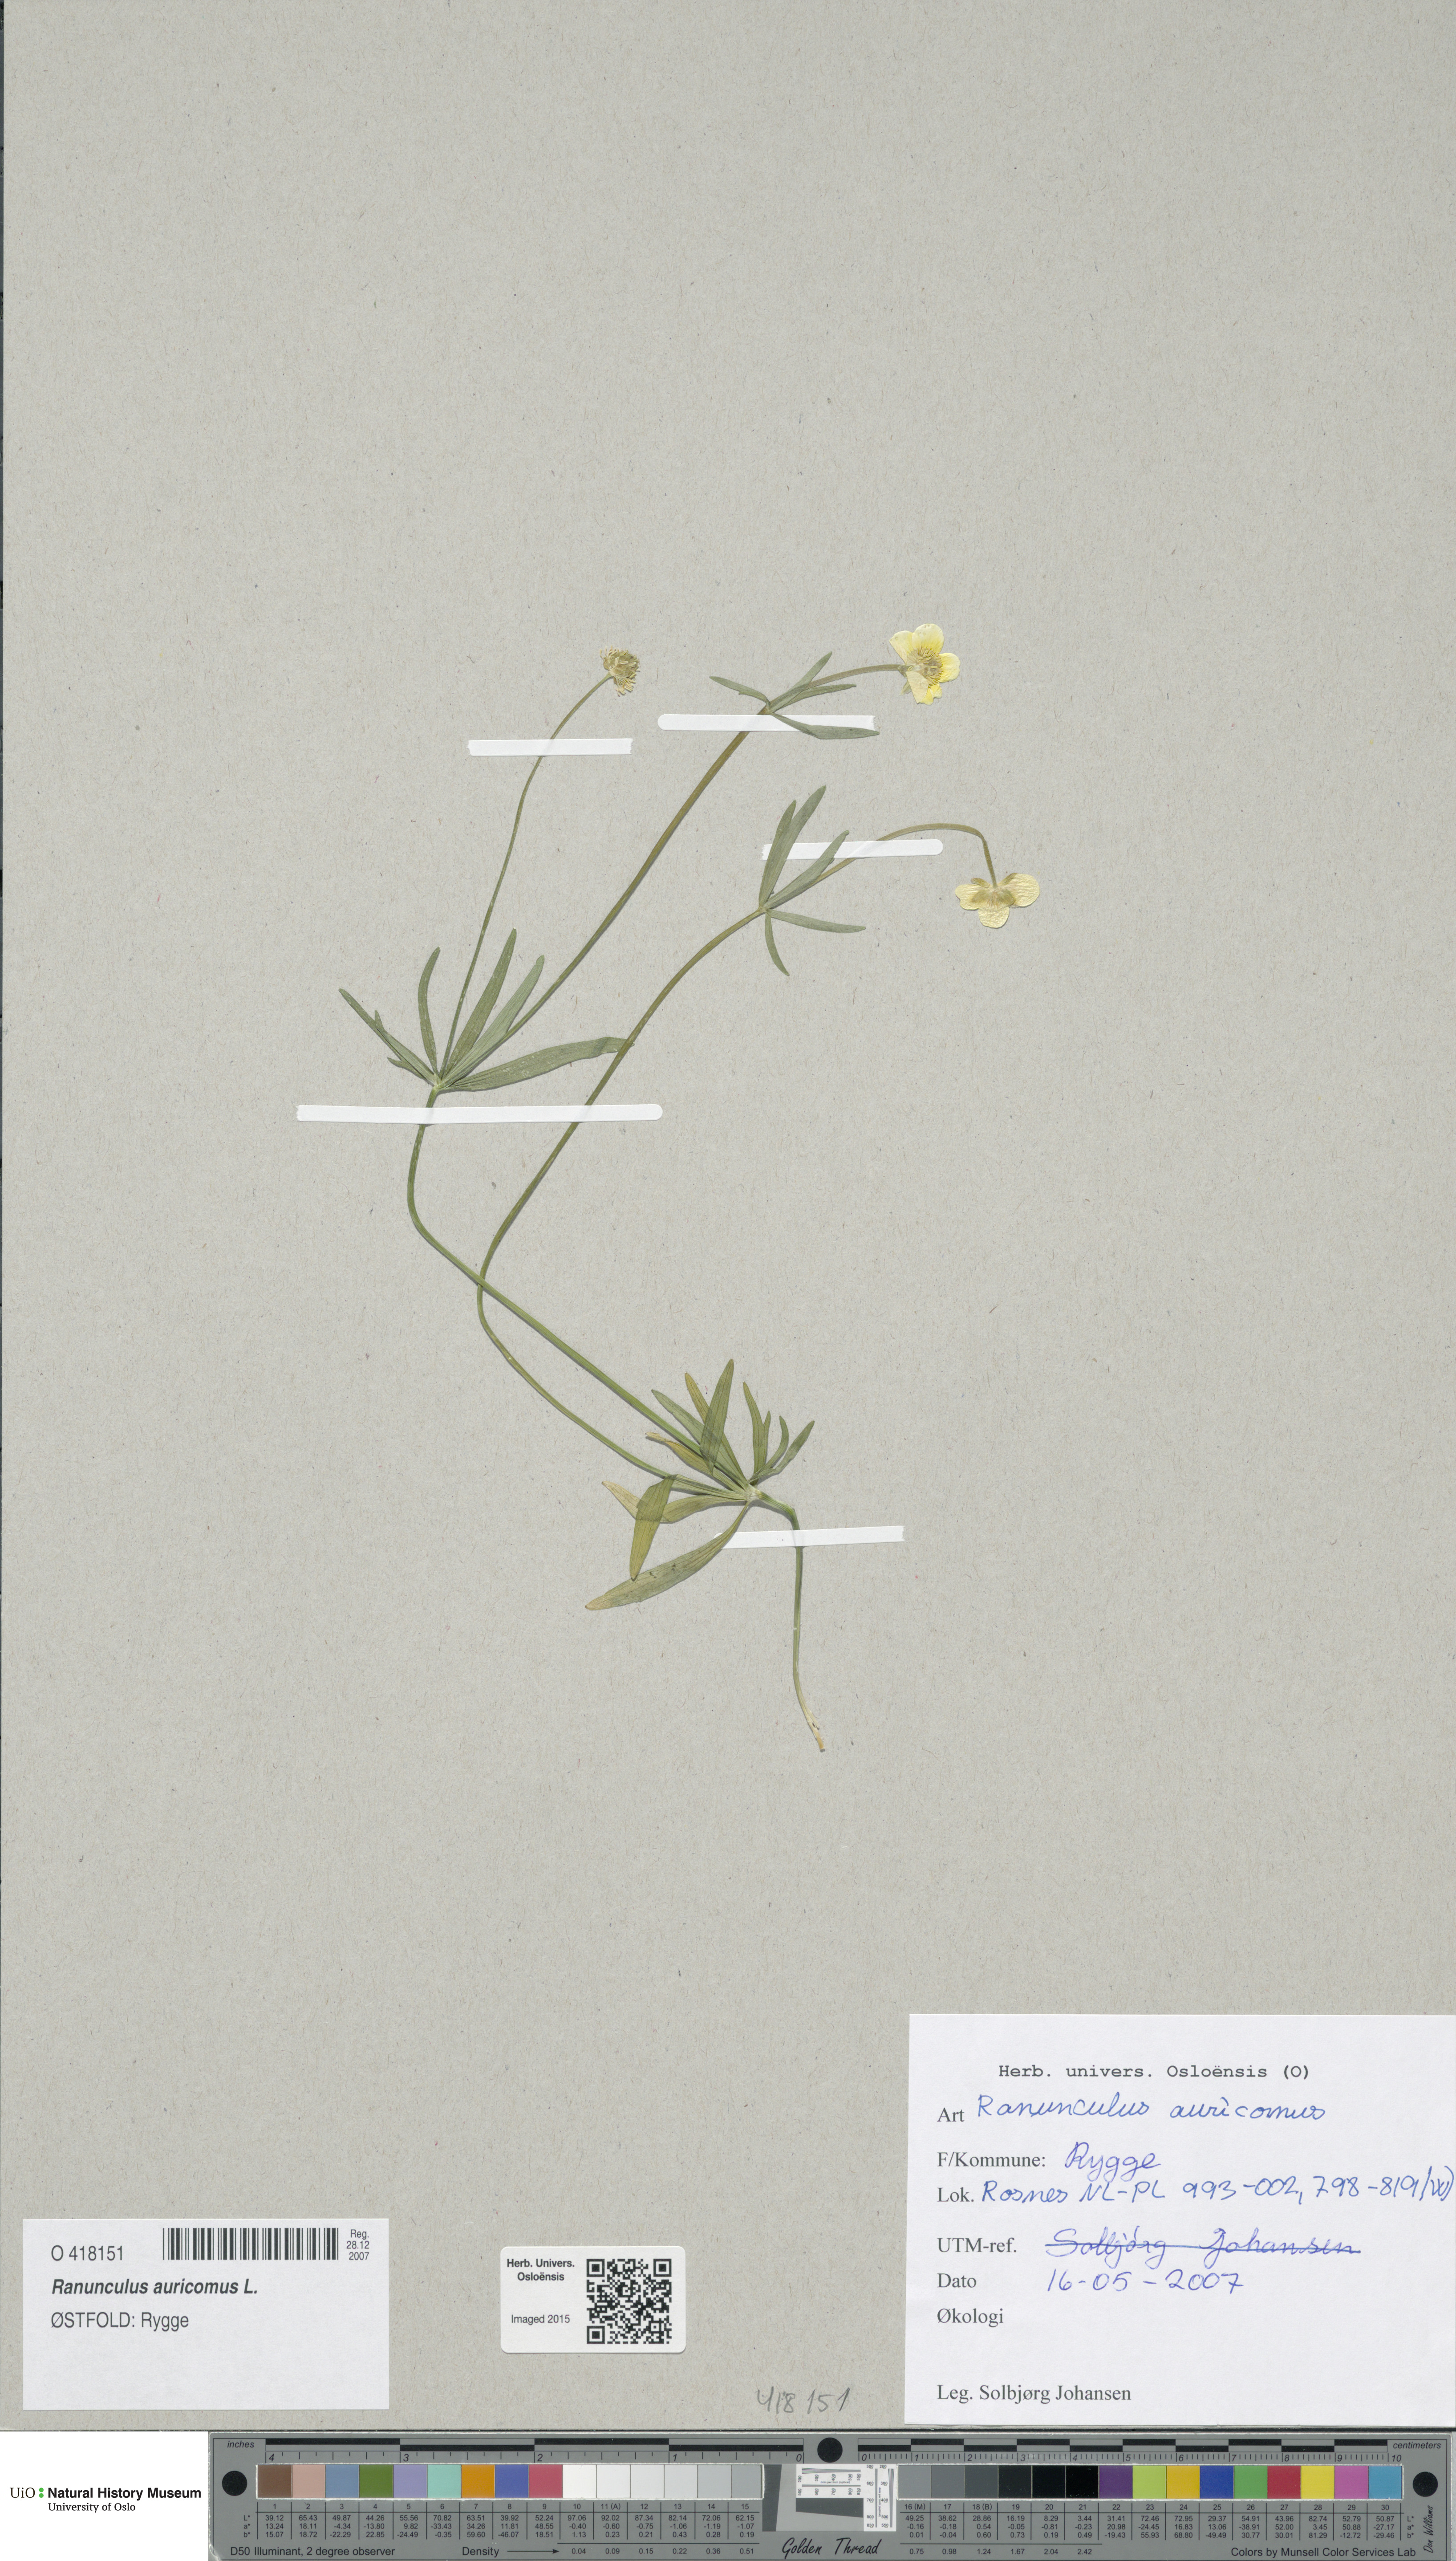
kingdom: Plantae
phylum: Tracheophyta
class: Magnoliopsida
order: Ranunculales
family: Ranunculaceae
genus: Ranunculus
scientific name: Ranunculus auricomus
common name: Goldilocks buttercup
